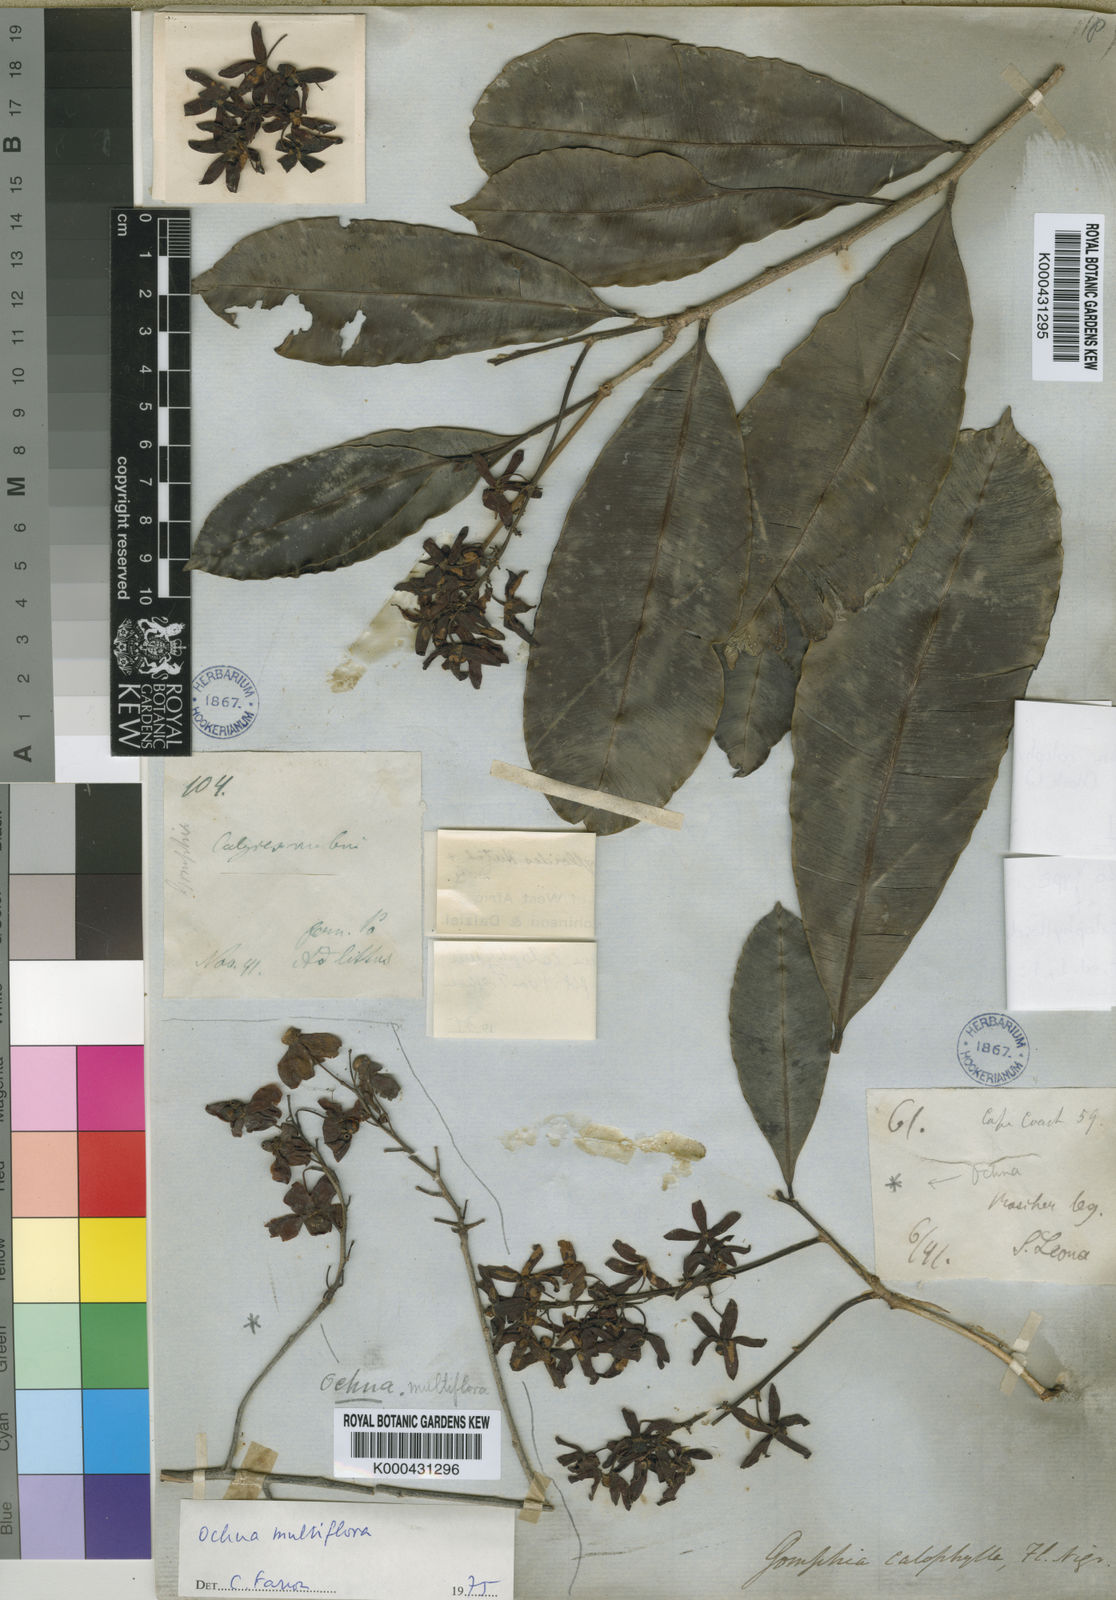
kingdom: Plantae
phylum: Tracheophyta
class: Magnoliopsida
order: Malpighiales
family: Ochnaceae
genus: Ochna
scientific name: Ochna multiflora
